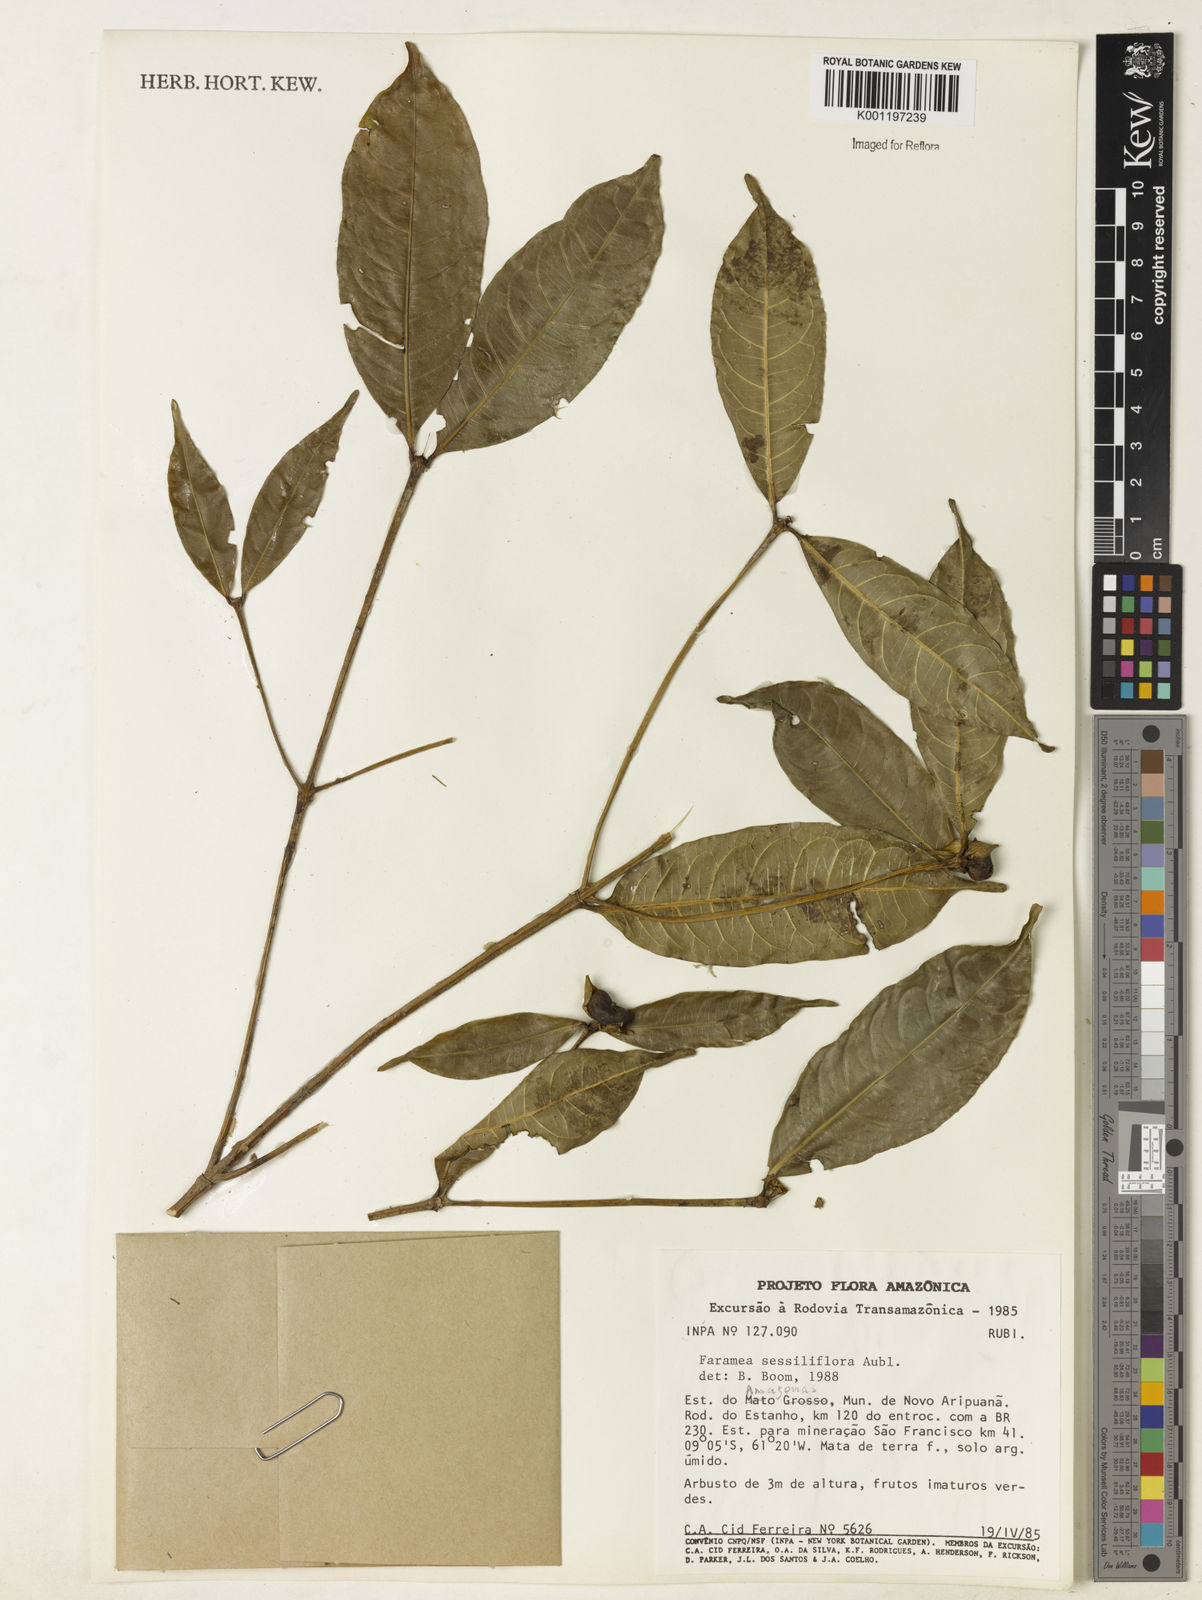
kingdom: Plantae
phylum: Tracheophyta
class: Magnoliopsida
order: Gentianales
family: Rubiaceae
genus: Faramea
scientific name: Faramea sessilifolia
